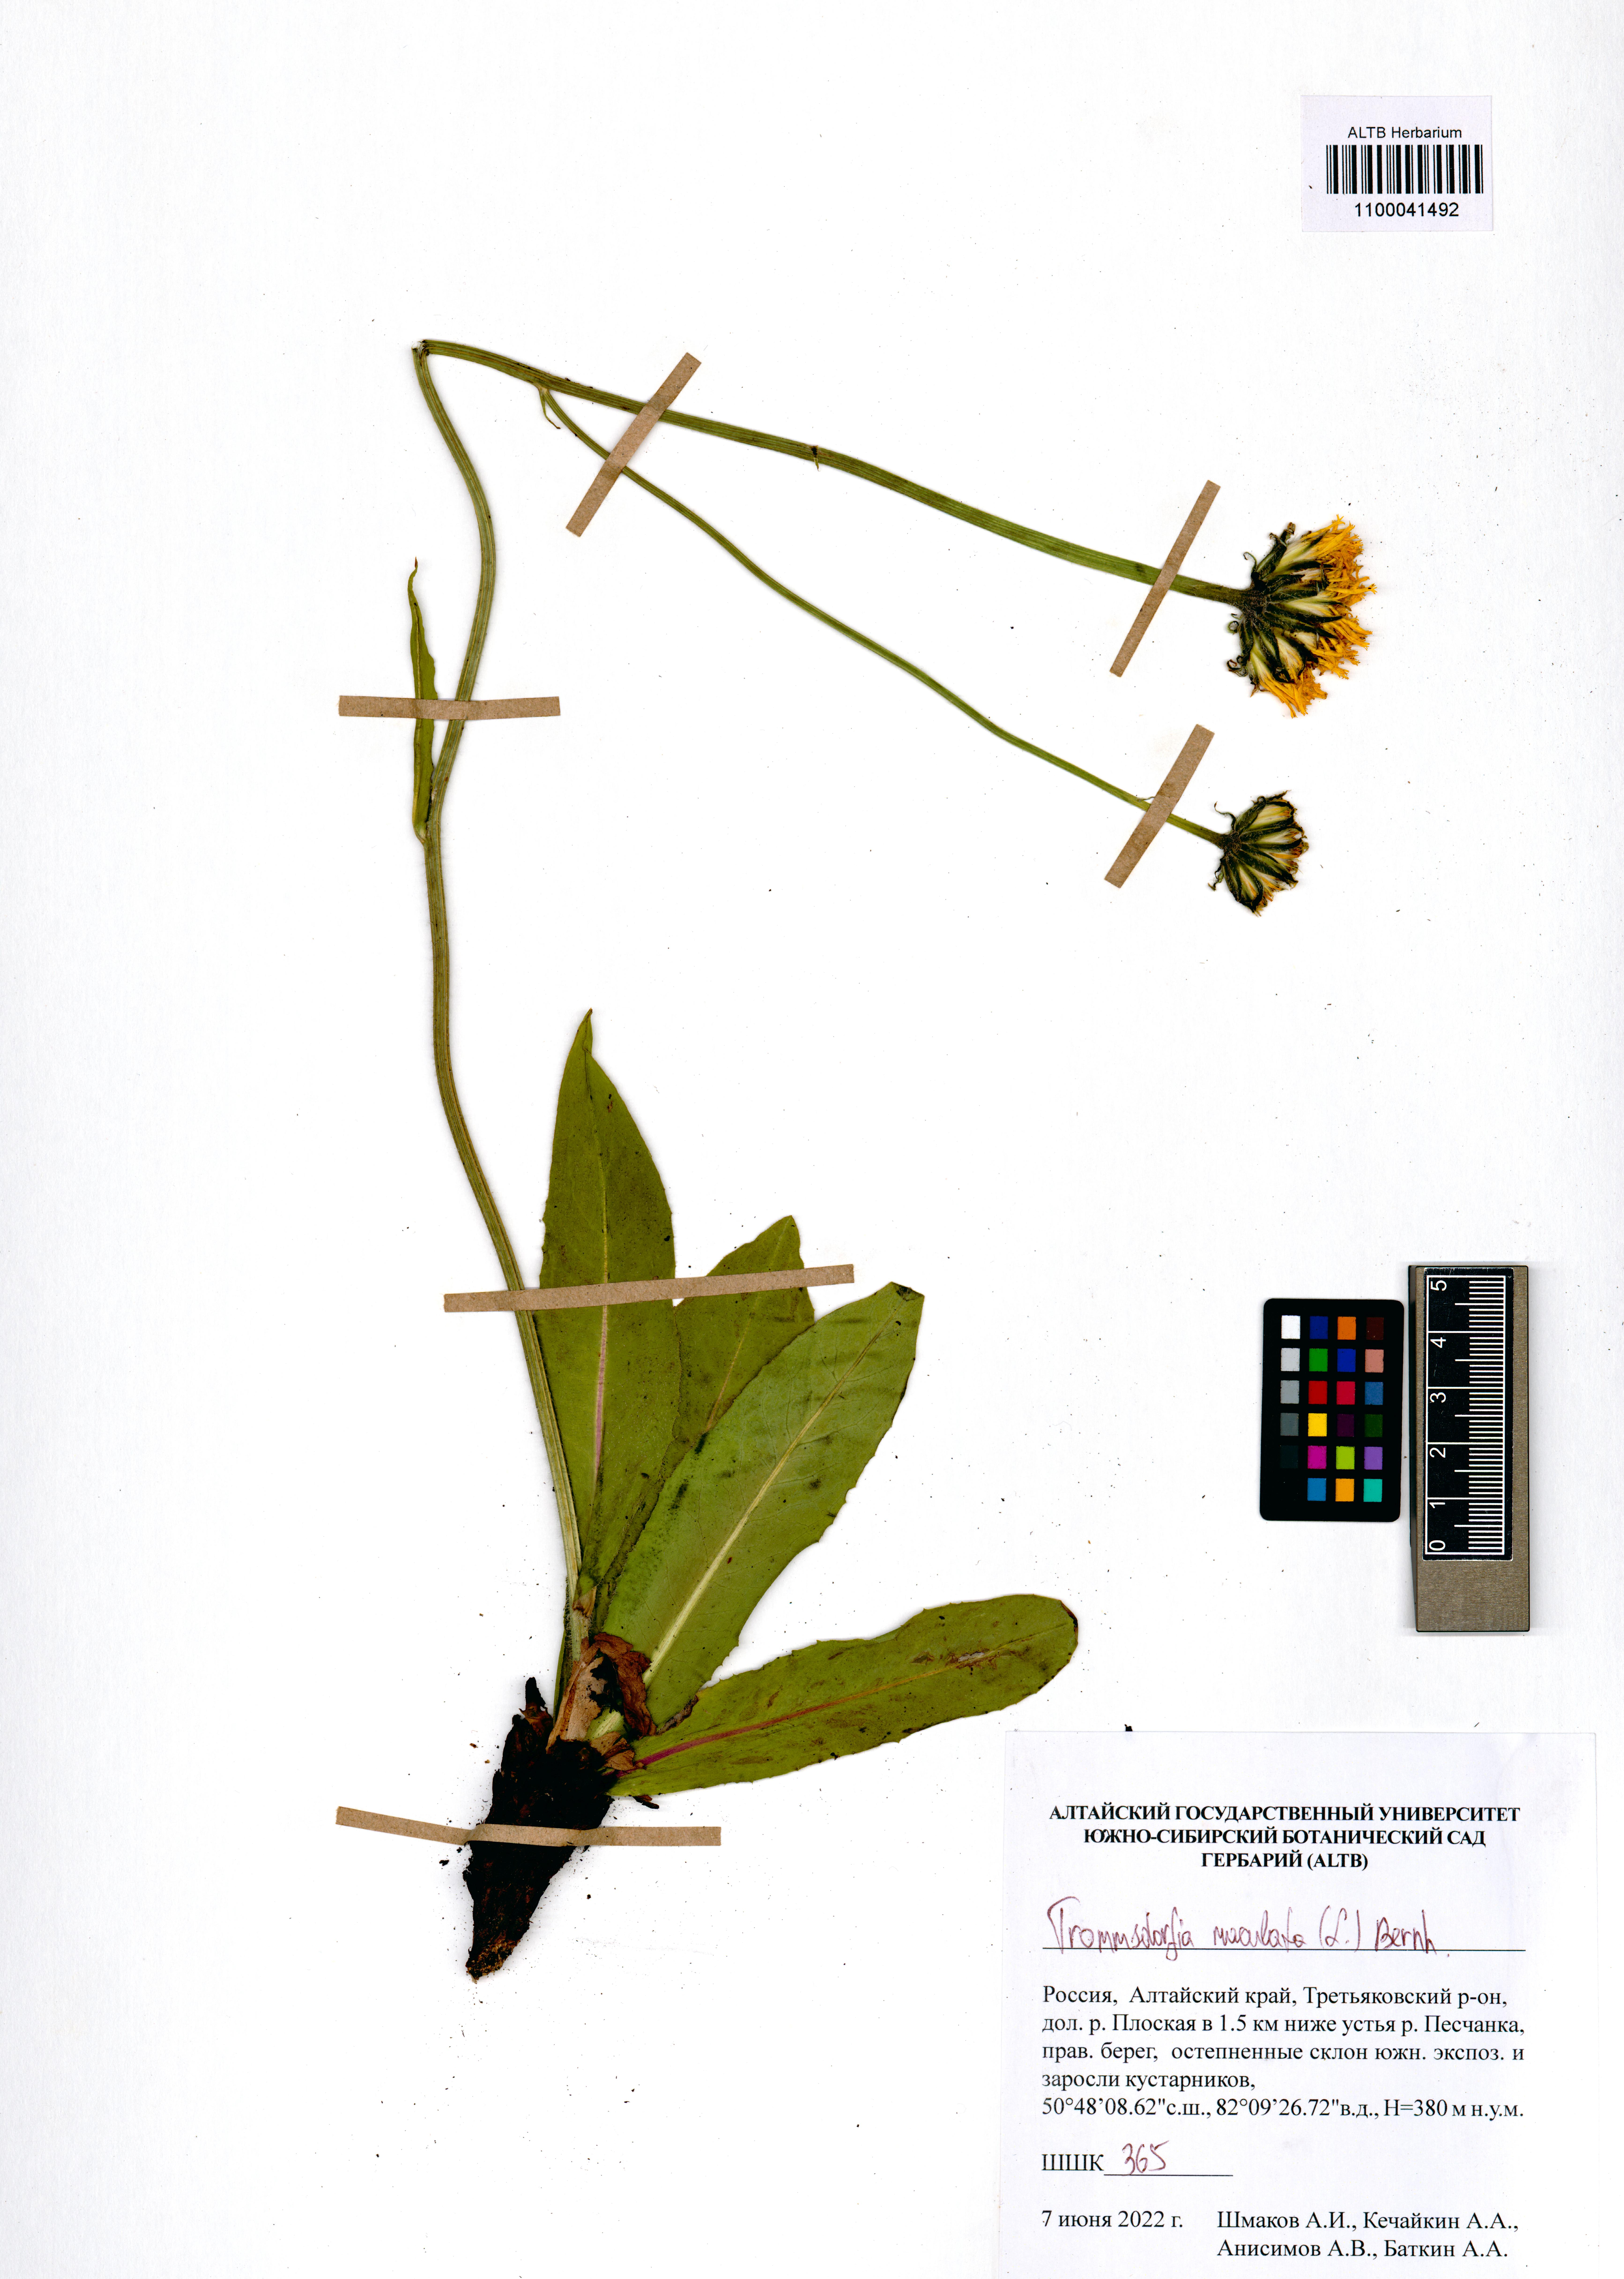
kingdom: Plantae
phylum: Tracheophyta
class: Magnoliopsida
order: Asterales
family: Asteraceae
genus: Trommsdorffia
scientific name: Trommsdorffia maculata
